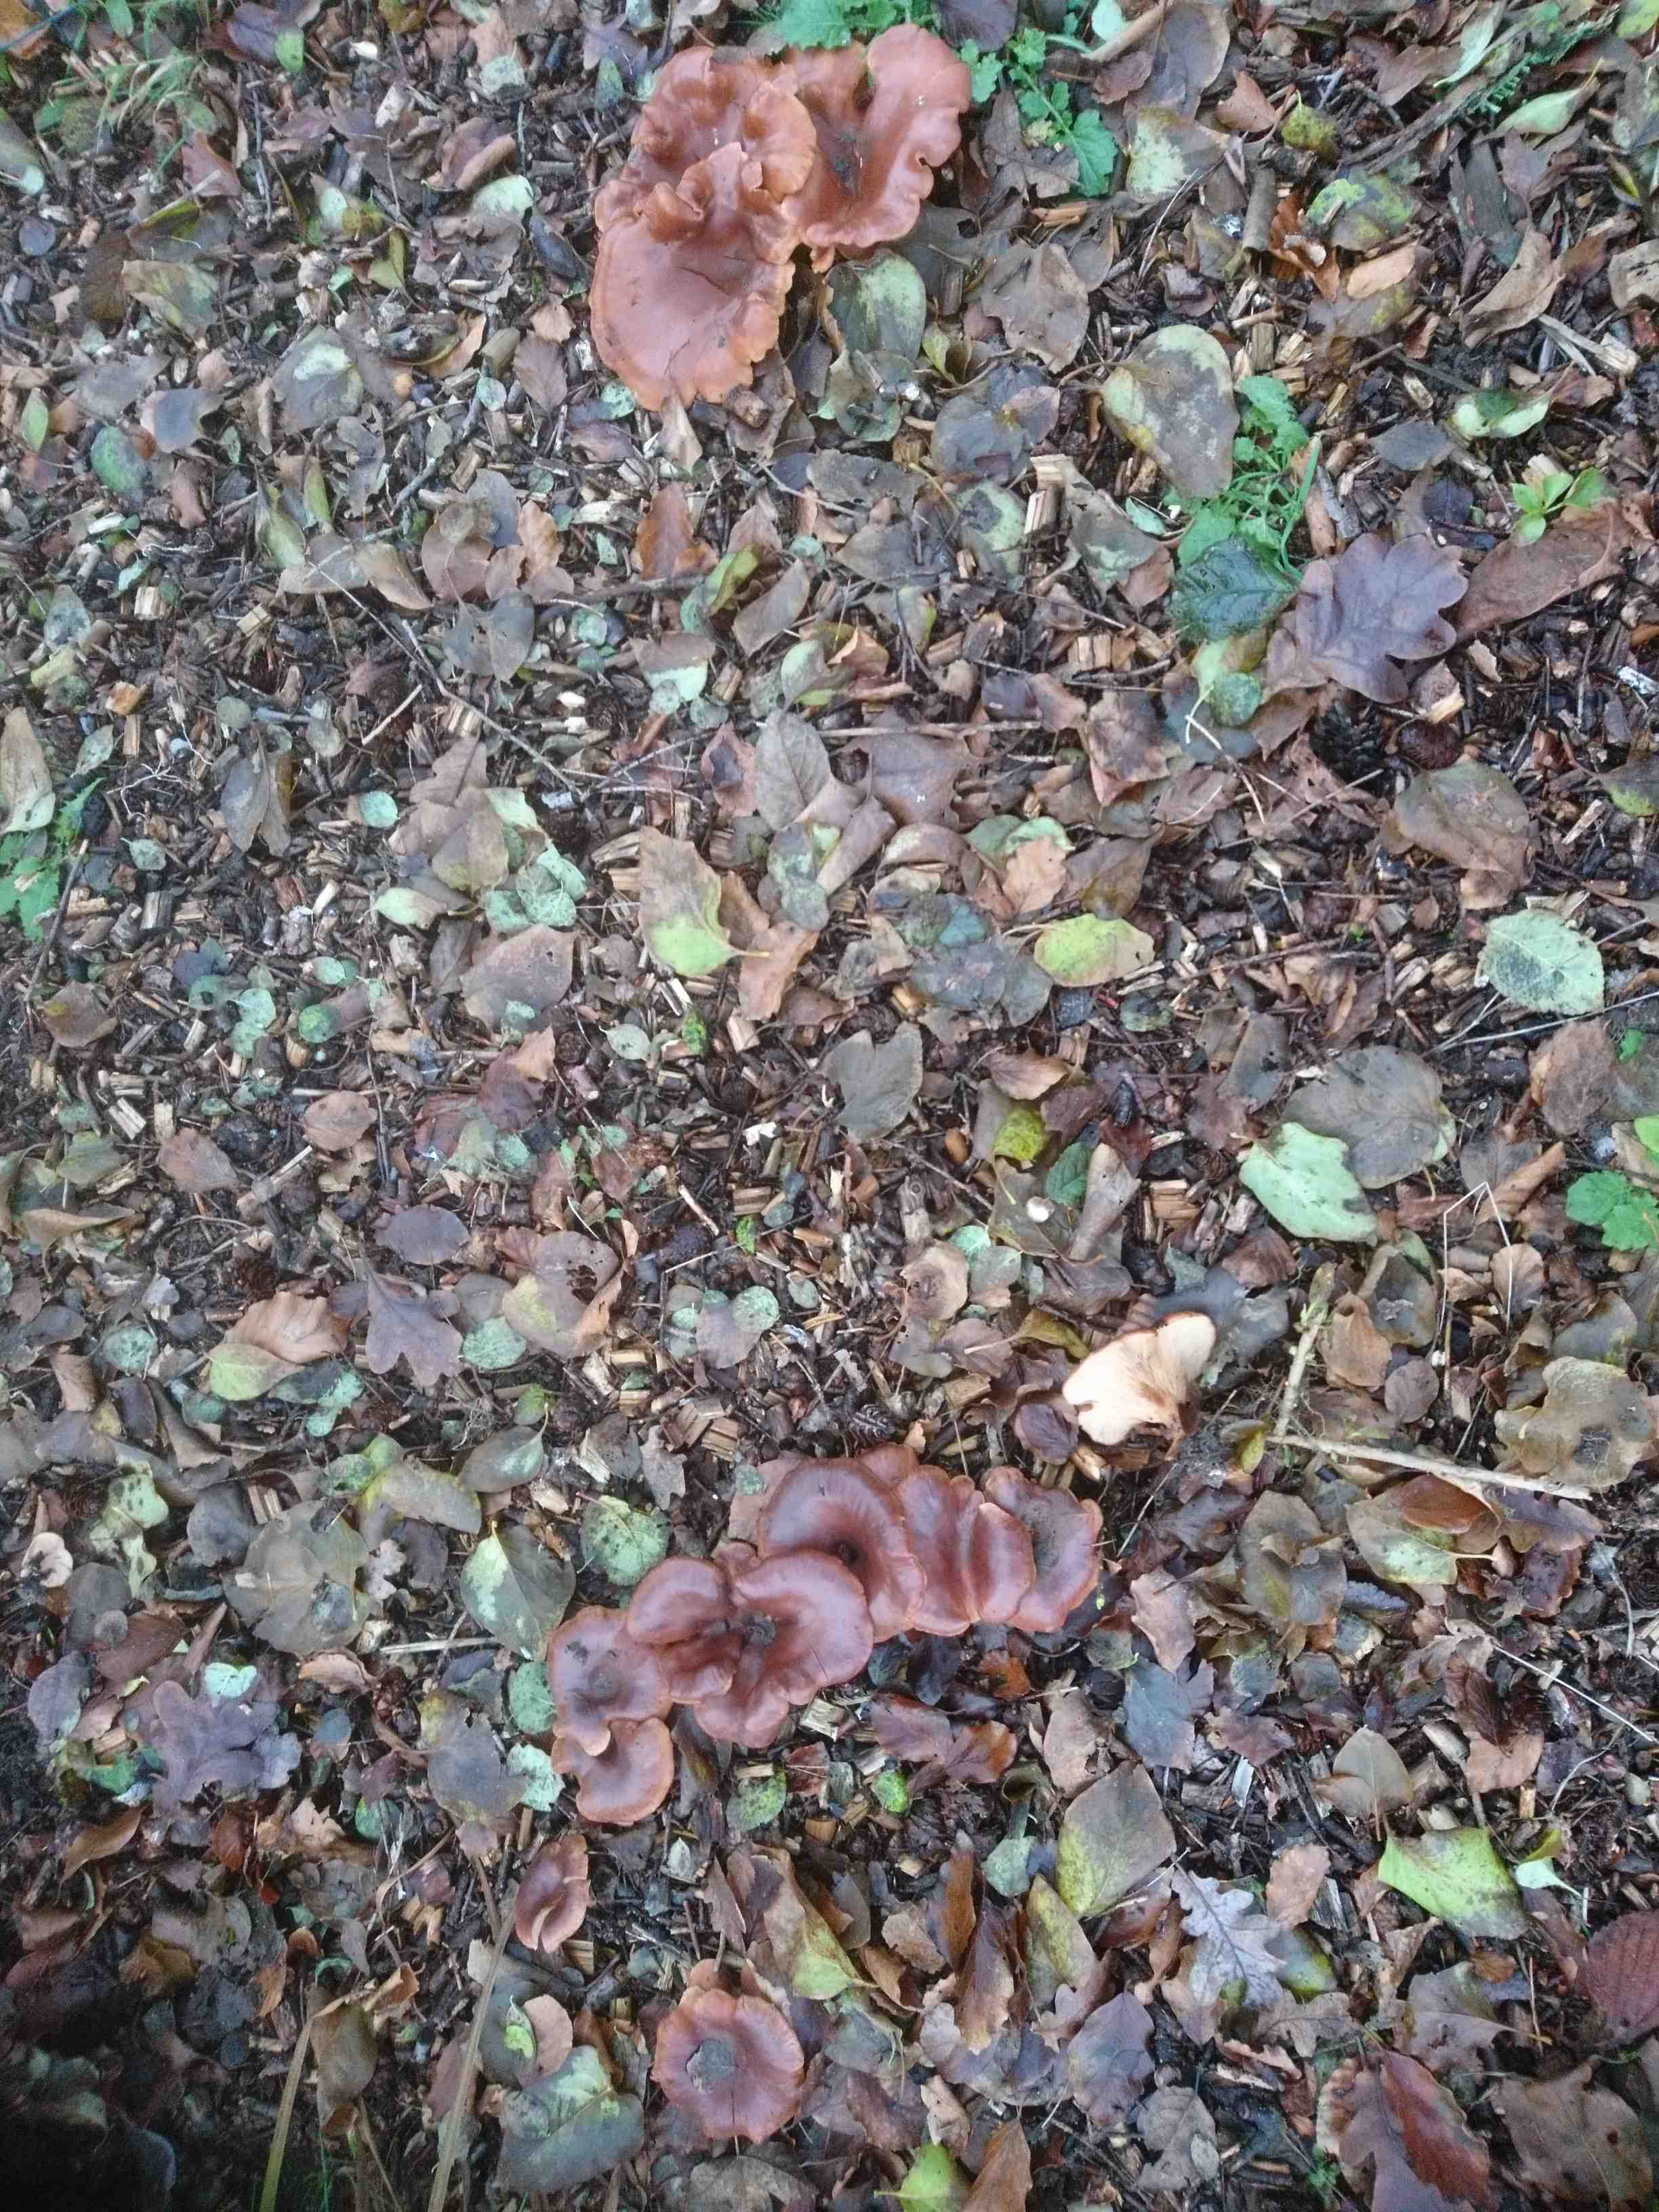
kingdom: Fungi
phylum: Basidiomycota
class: Agaricomycetes
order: Agaricales
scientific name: Agaricales
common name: champignonordenen
